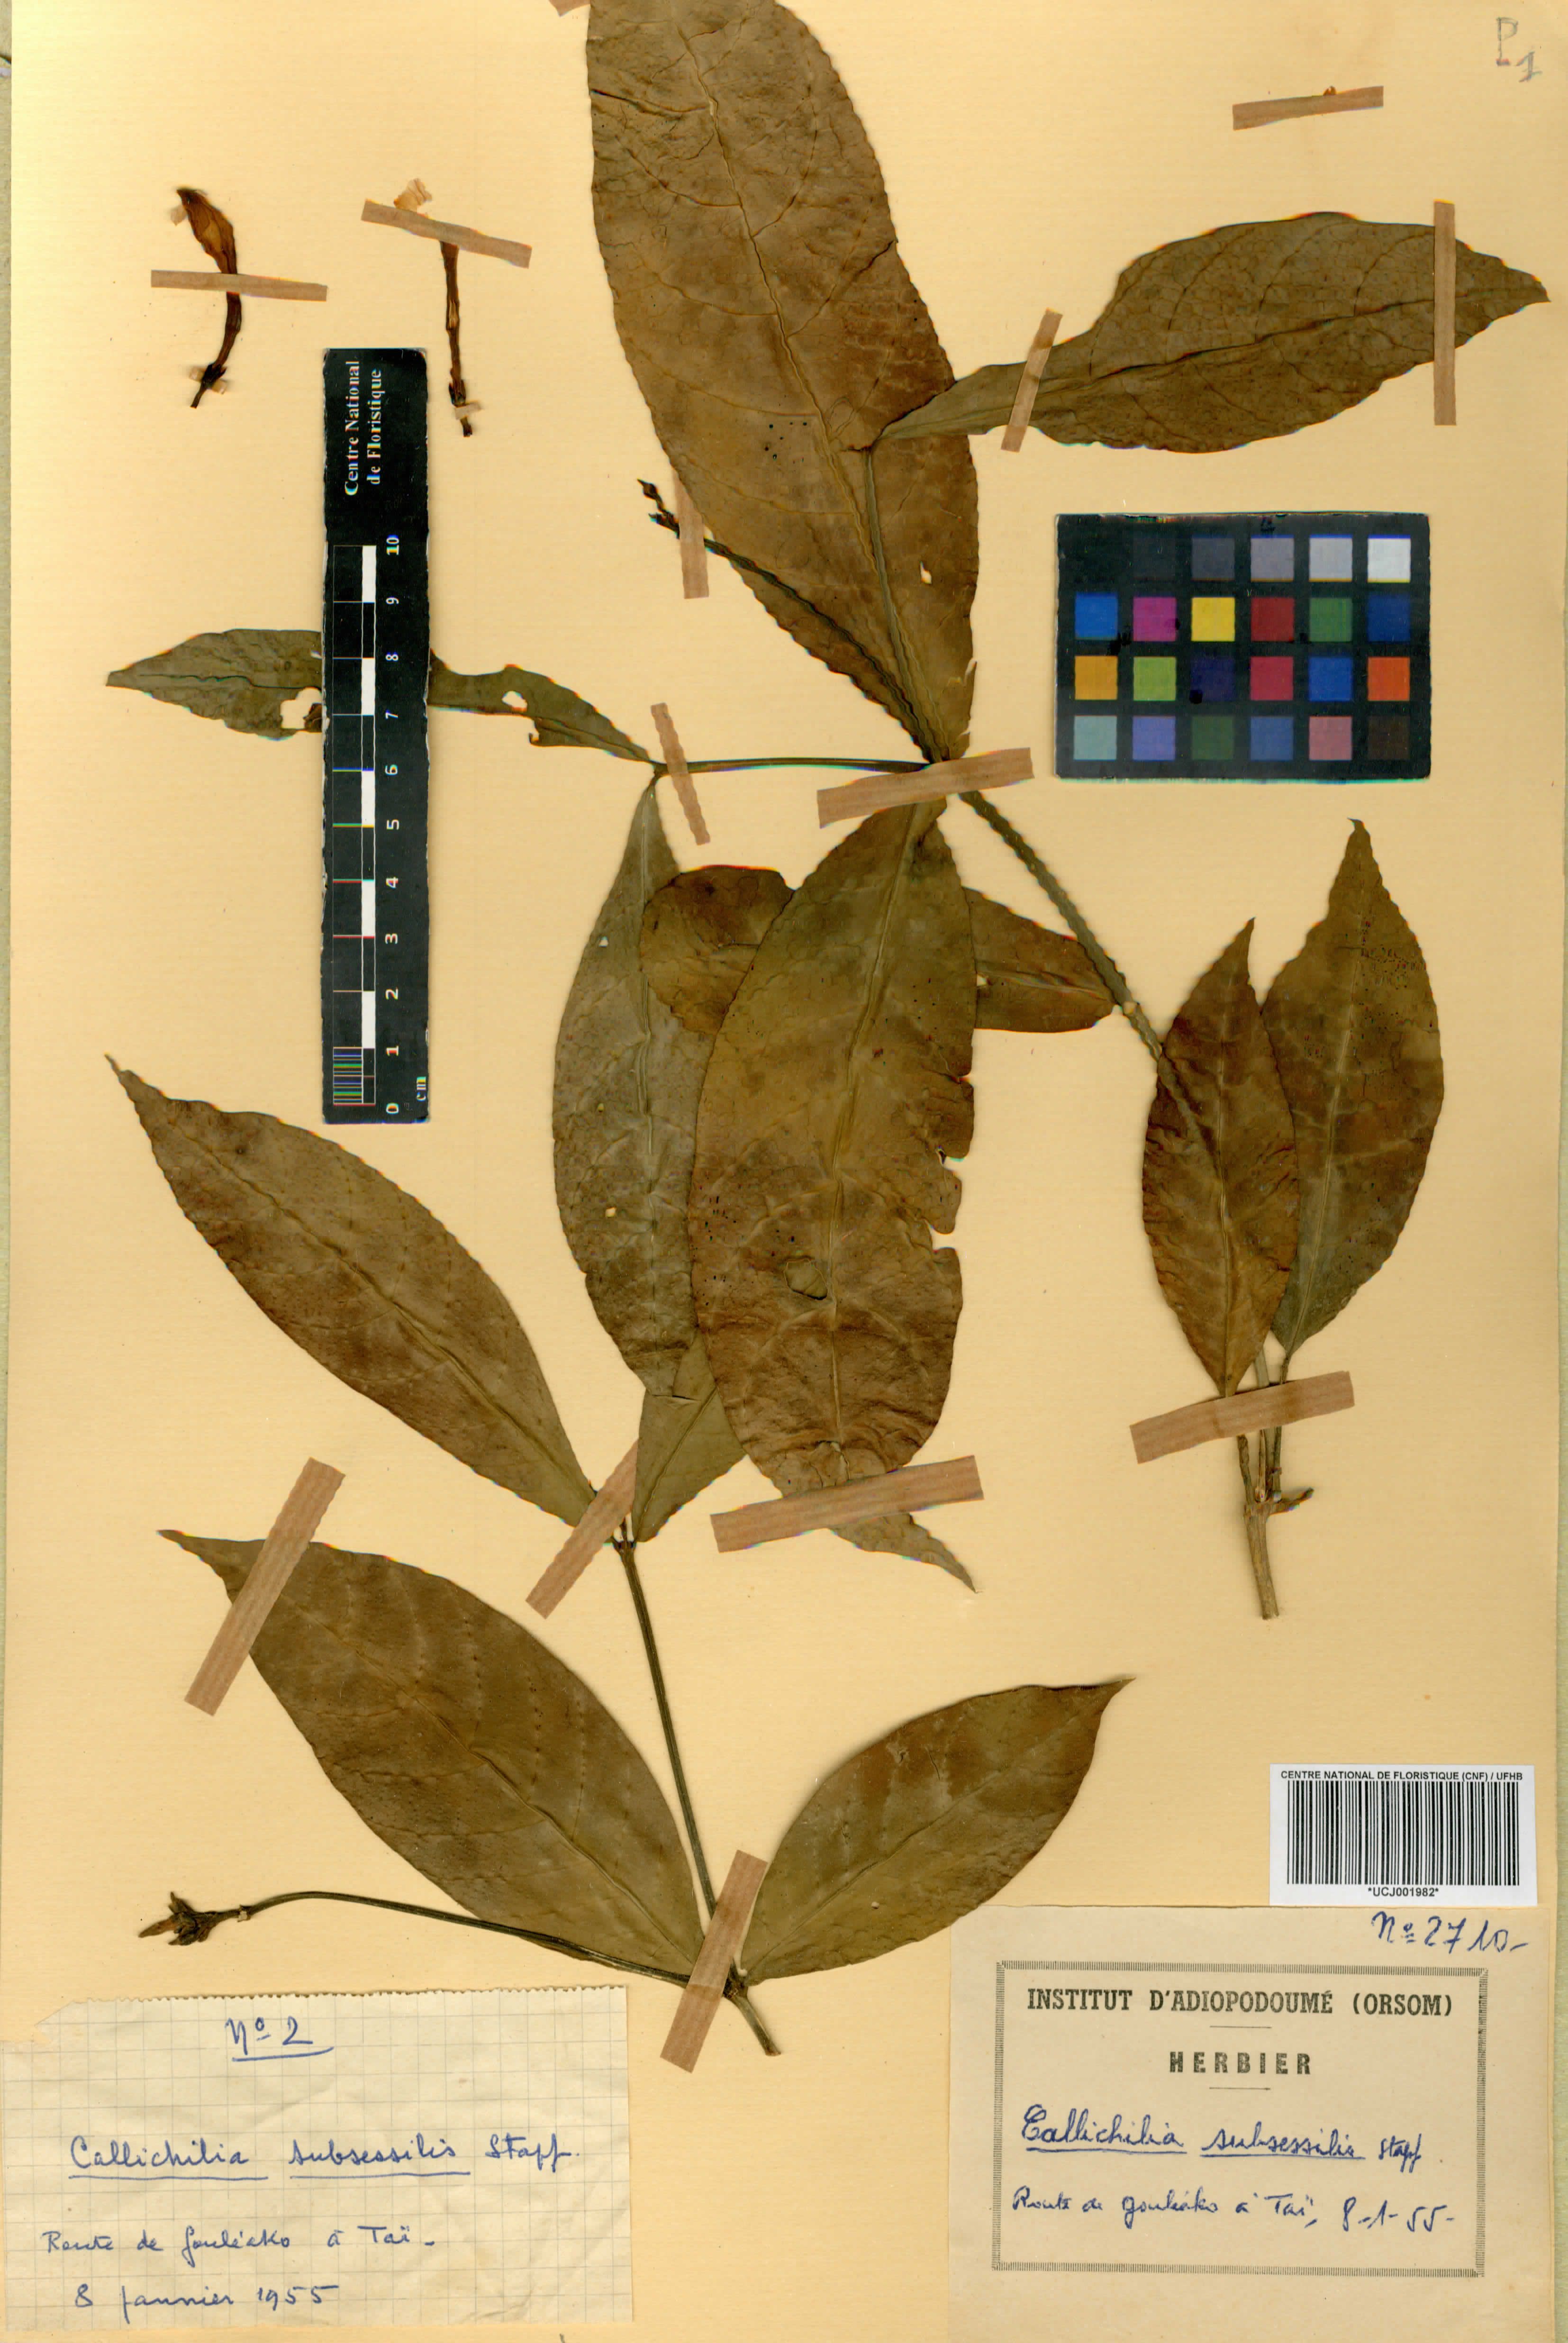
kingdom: Plantae
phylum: Tracheophyta
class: Magnoliopsida
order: Gentianales
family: Apocynaceae
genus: Callichilia
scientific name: Callichilia subsessilis
